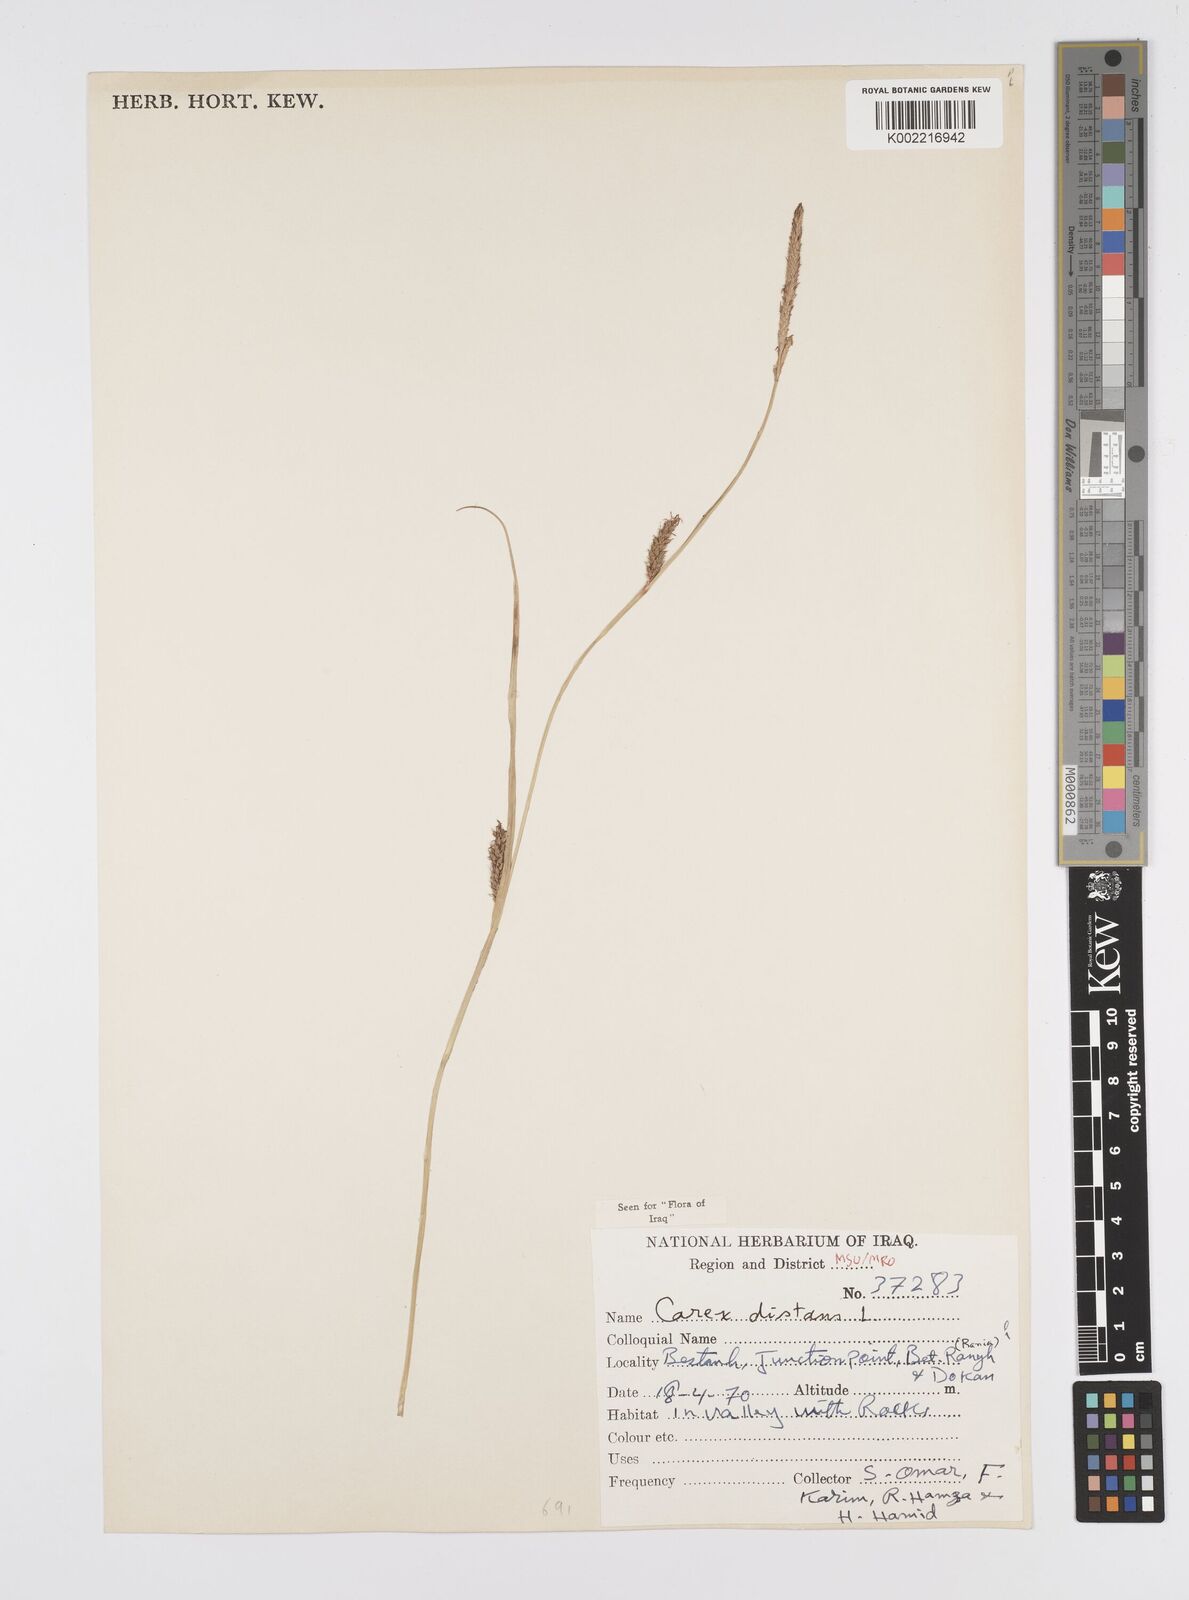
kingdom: Plantae
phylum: Tracheophyta
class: Liliopsida
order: Poales
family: Cyperaceae
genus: Carex
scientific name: Carex distans
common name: Distant sedge
